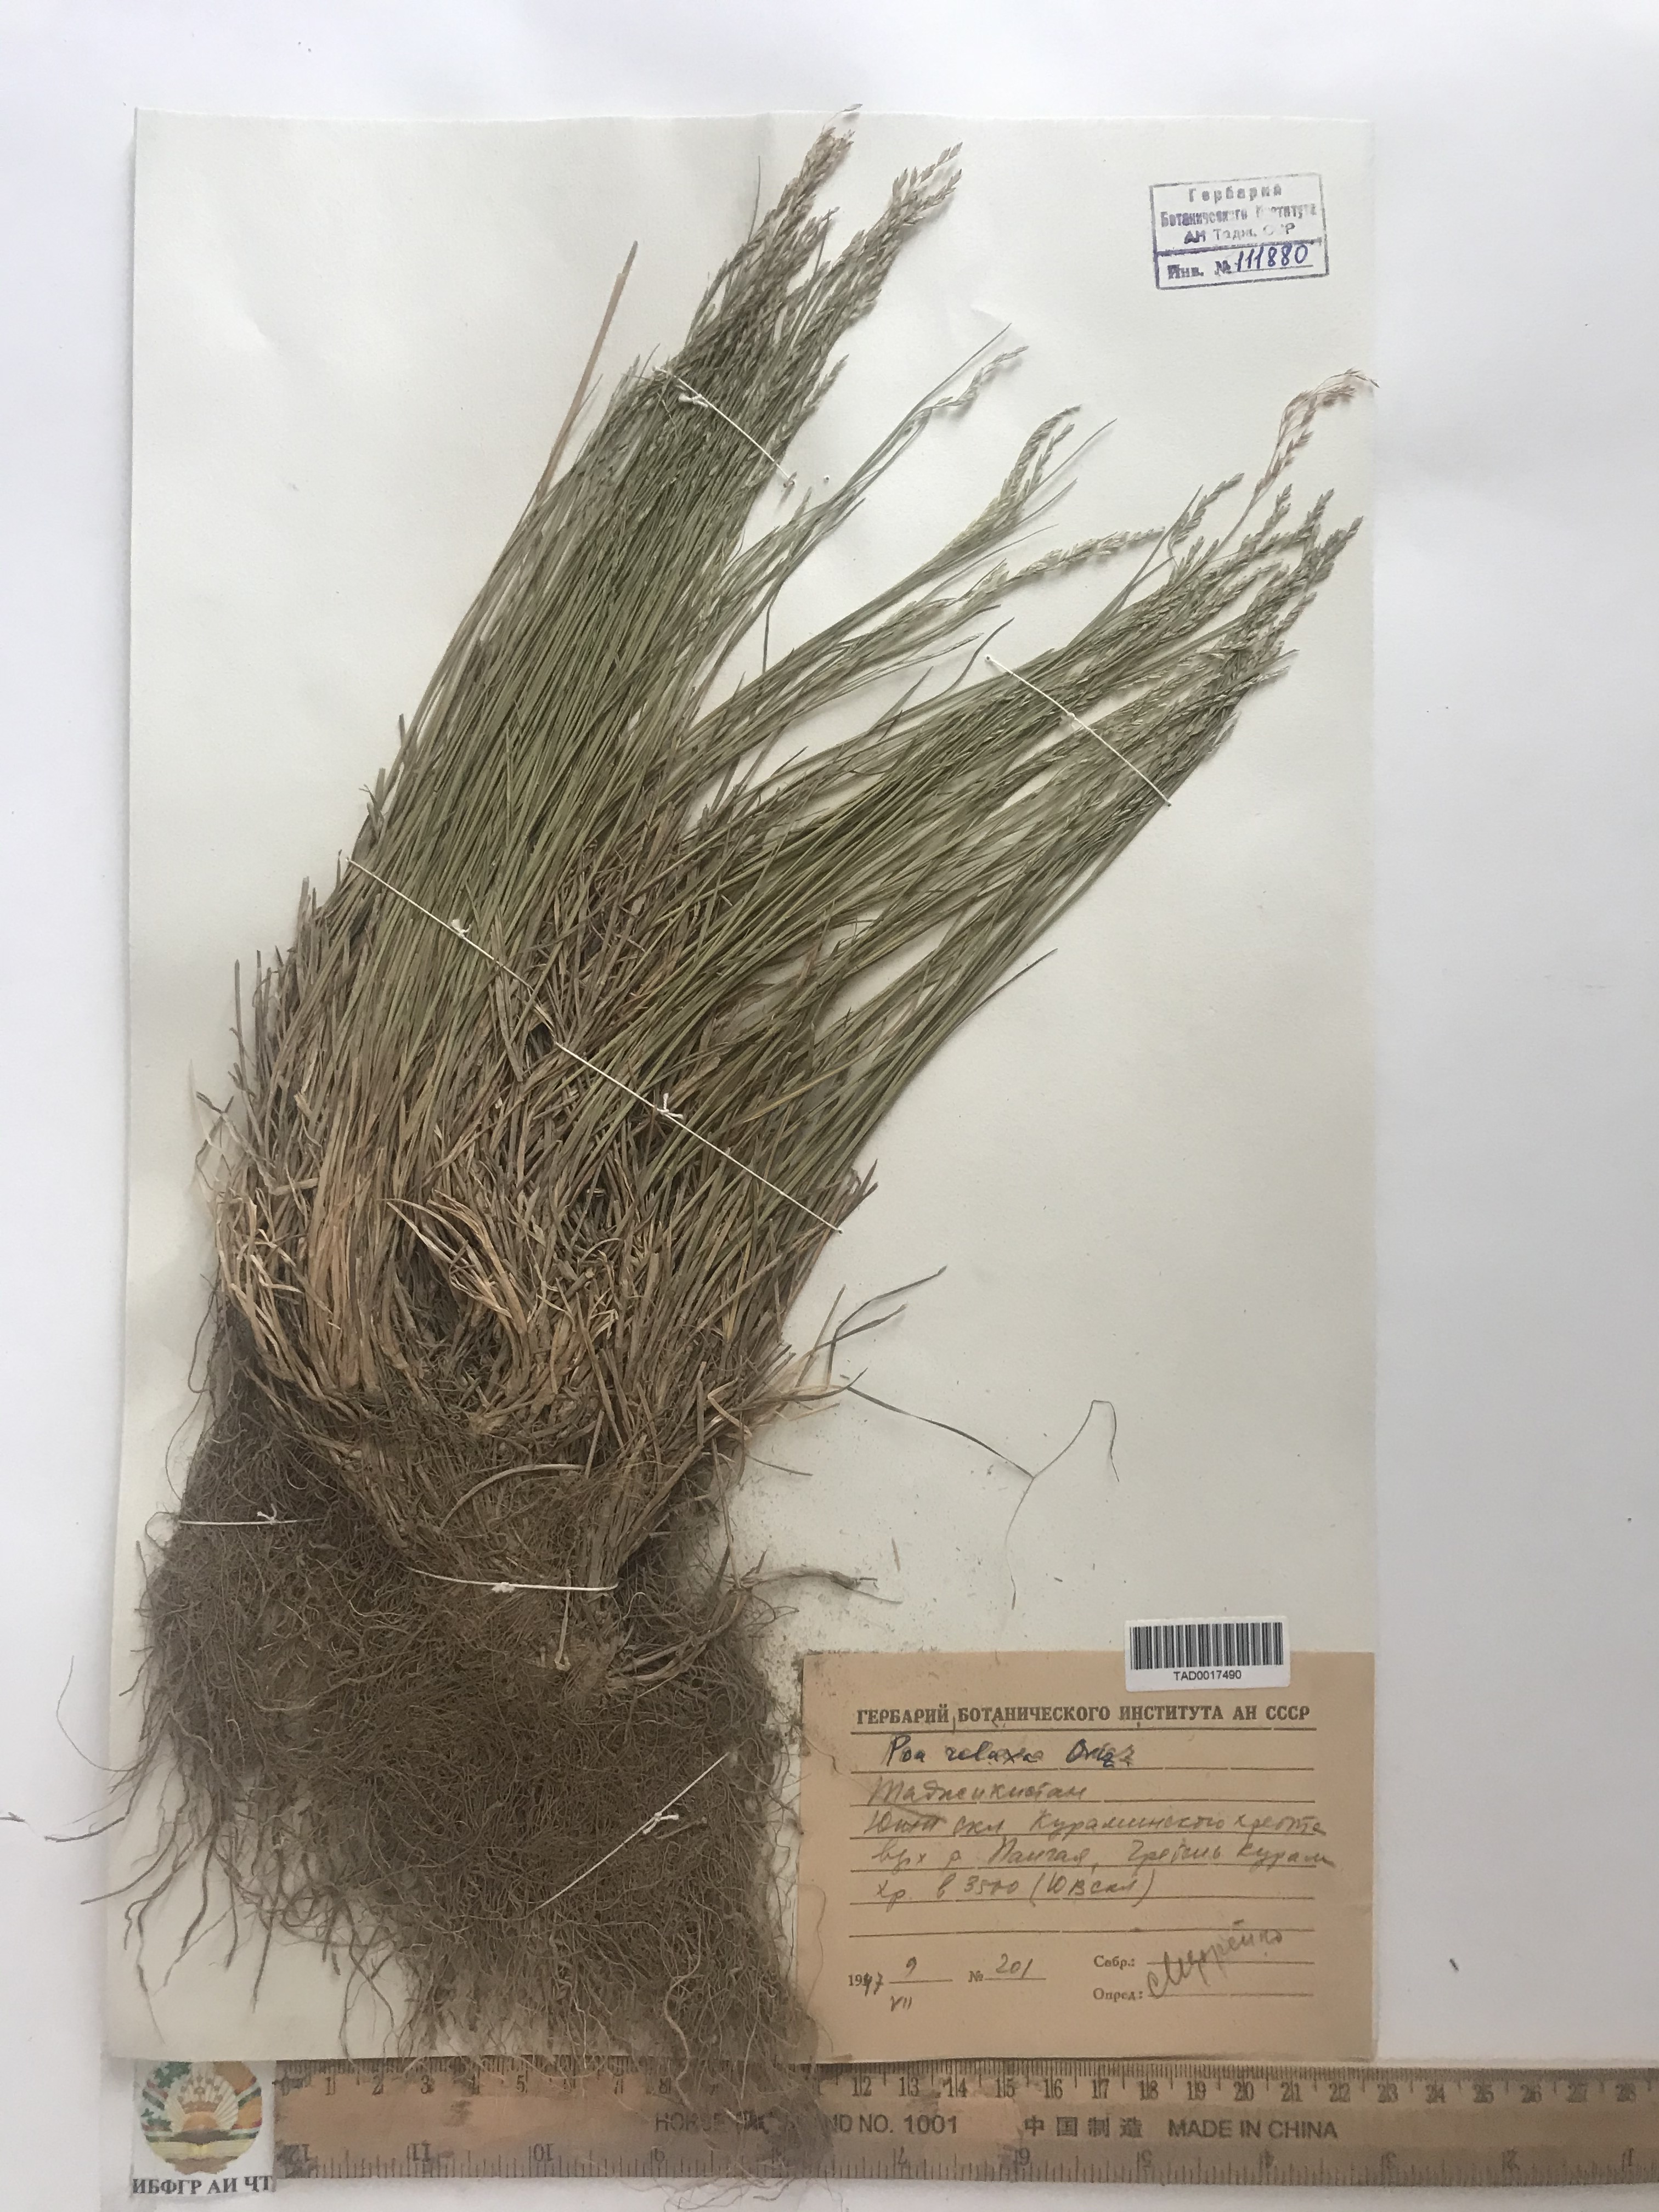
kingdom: Plantae
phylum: Tracheophyta
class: Liliopsida
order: Poales
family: Poaceae
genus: Poa
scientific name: Poa versicolor
